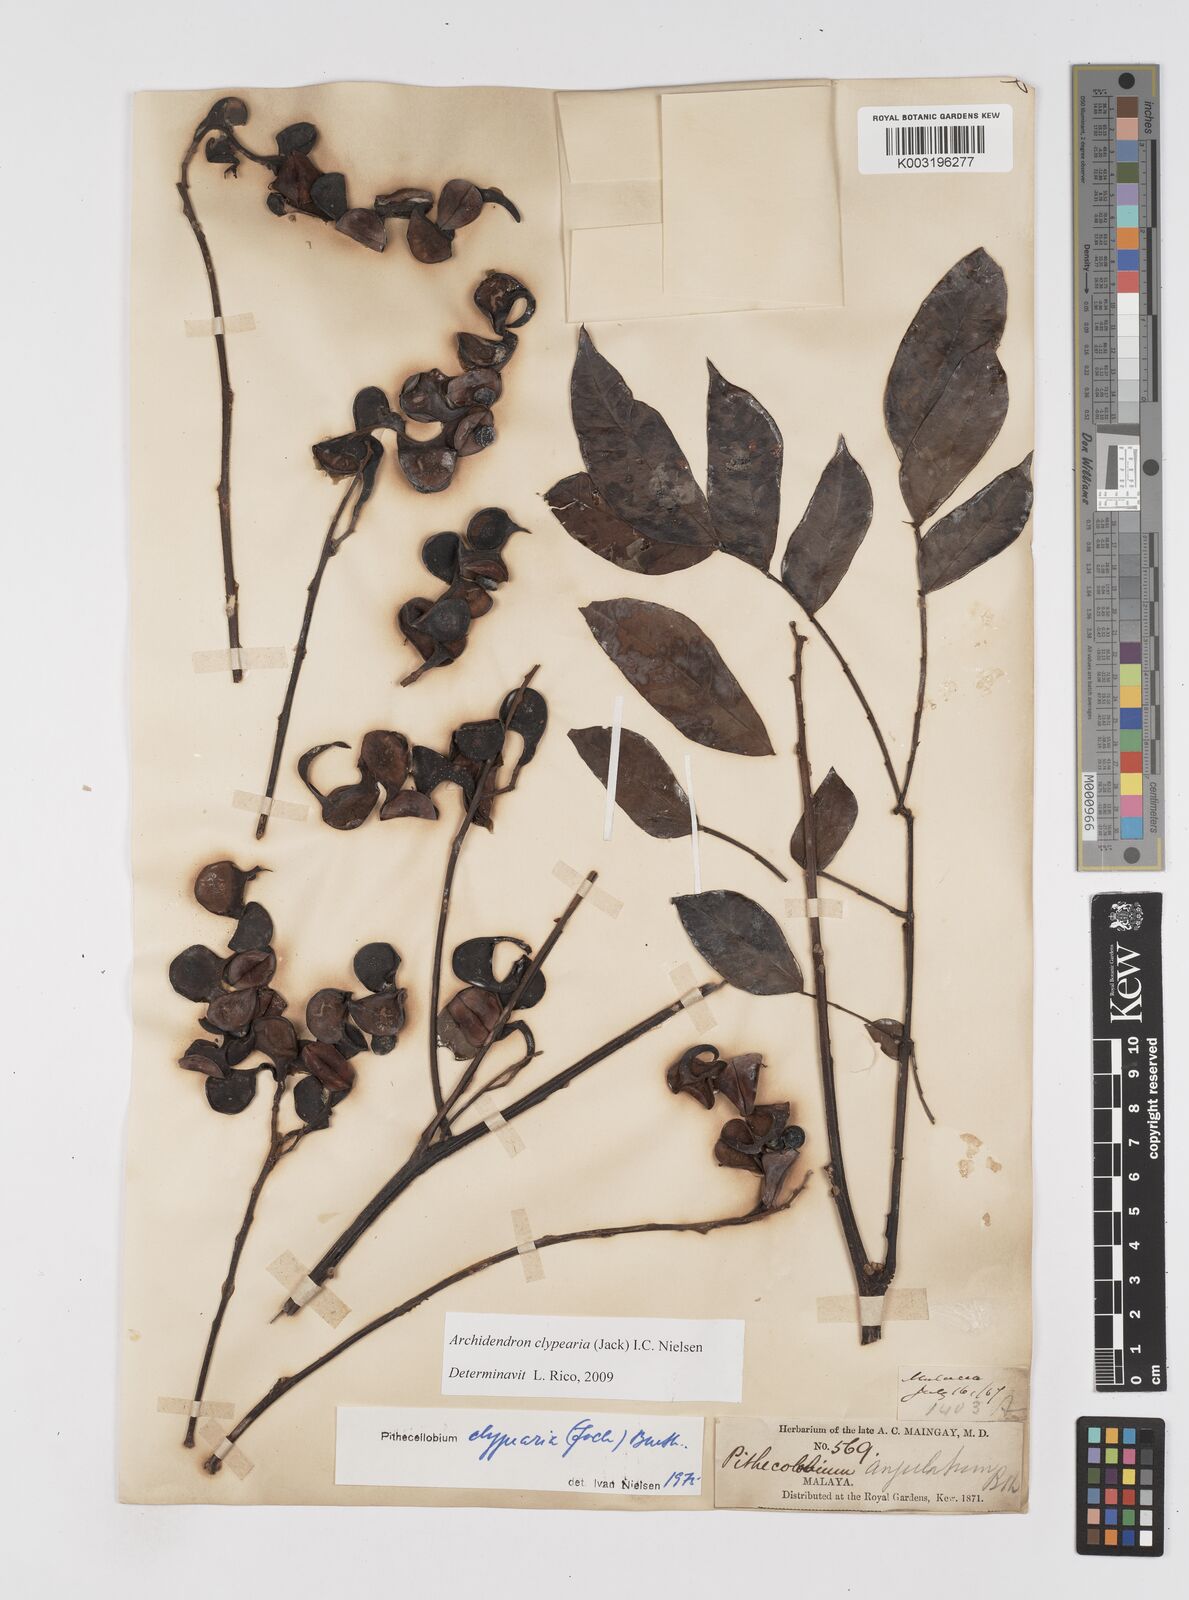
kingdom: Plantae
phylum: Tracheophyta
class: Magnoliopsida
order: Fabales
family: Fabaceae
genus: Archidendron
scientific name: Archidendron clypearia
